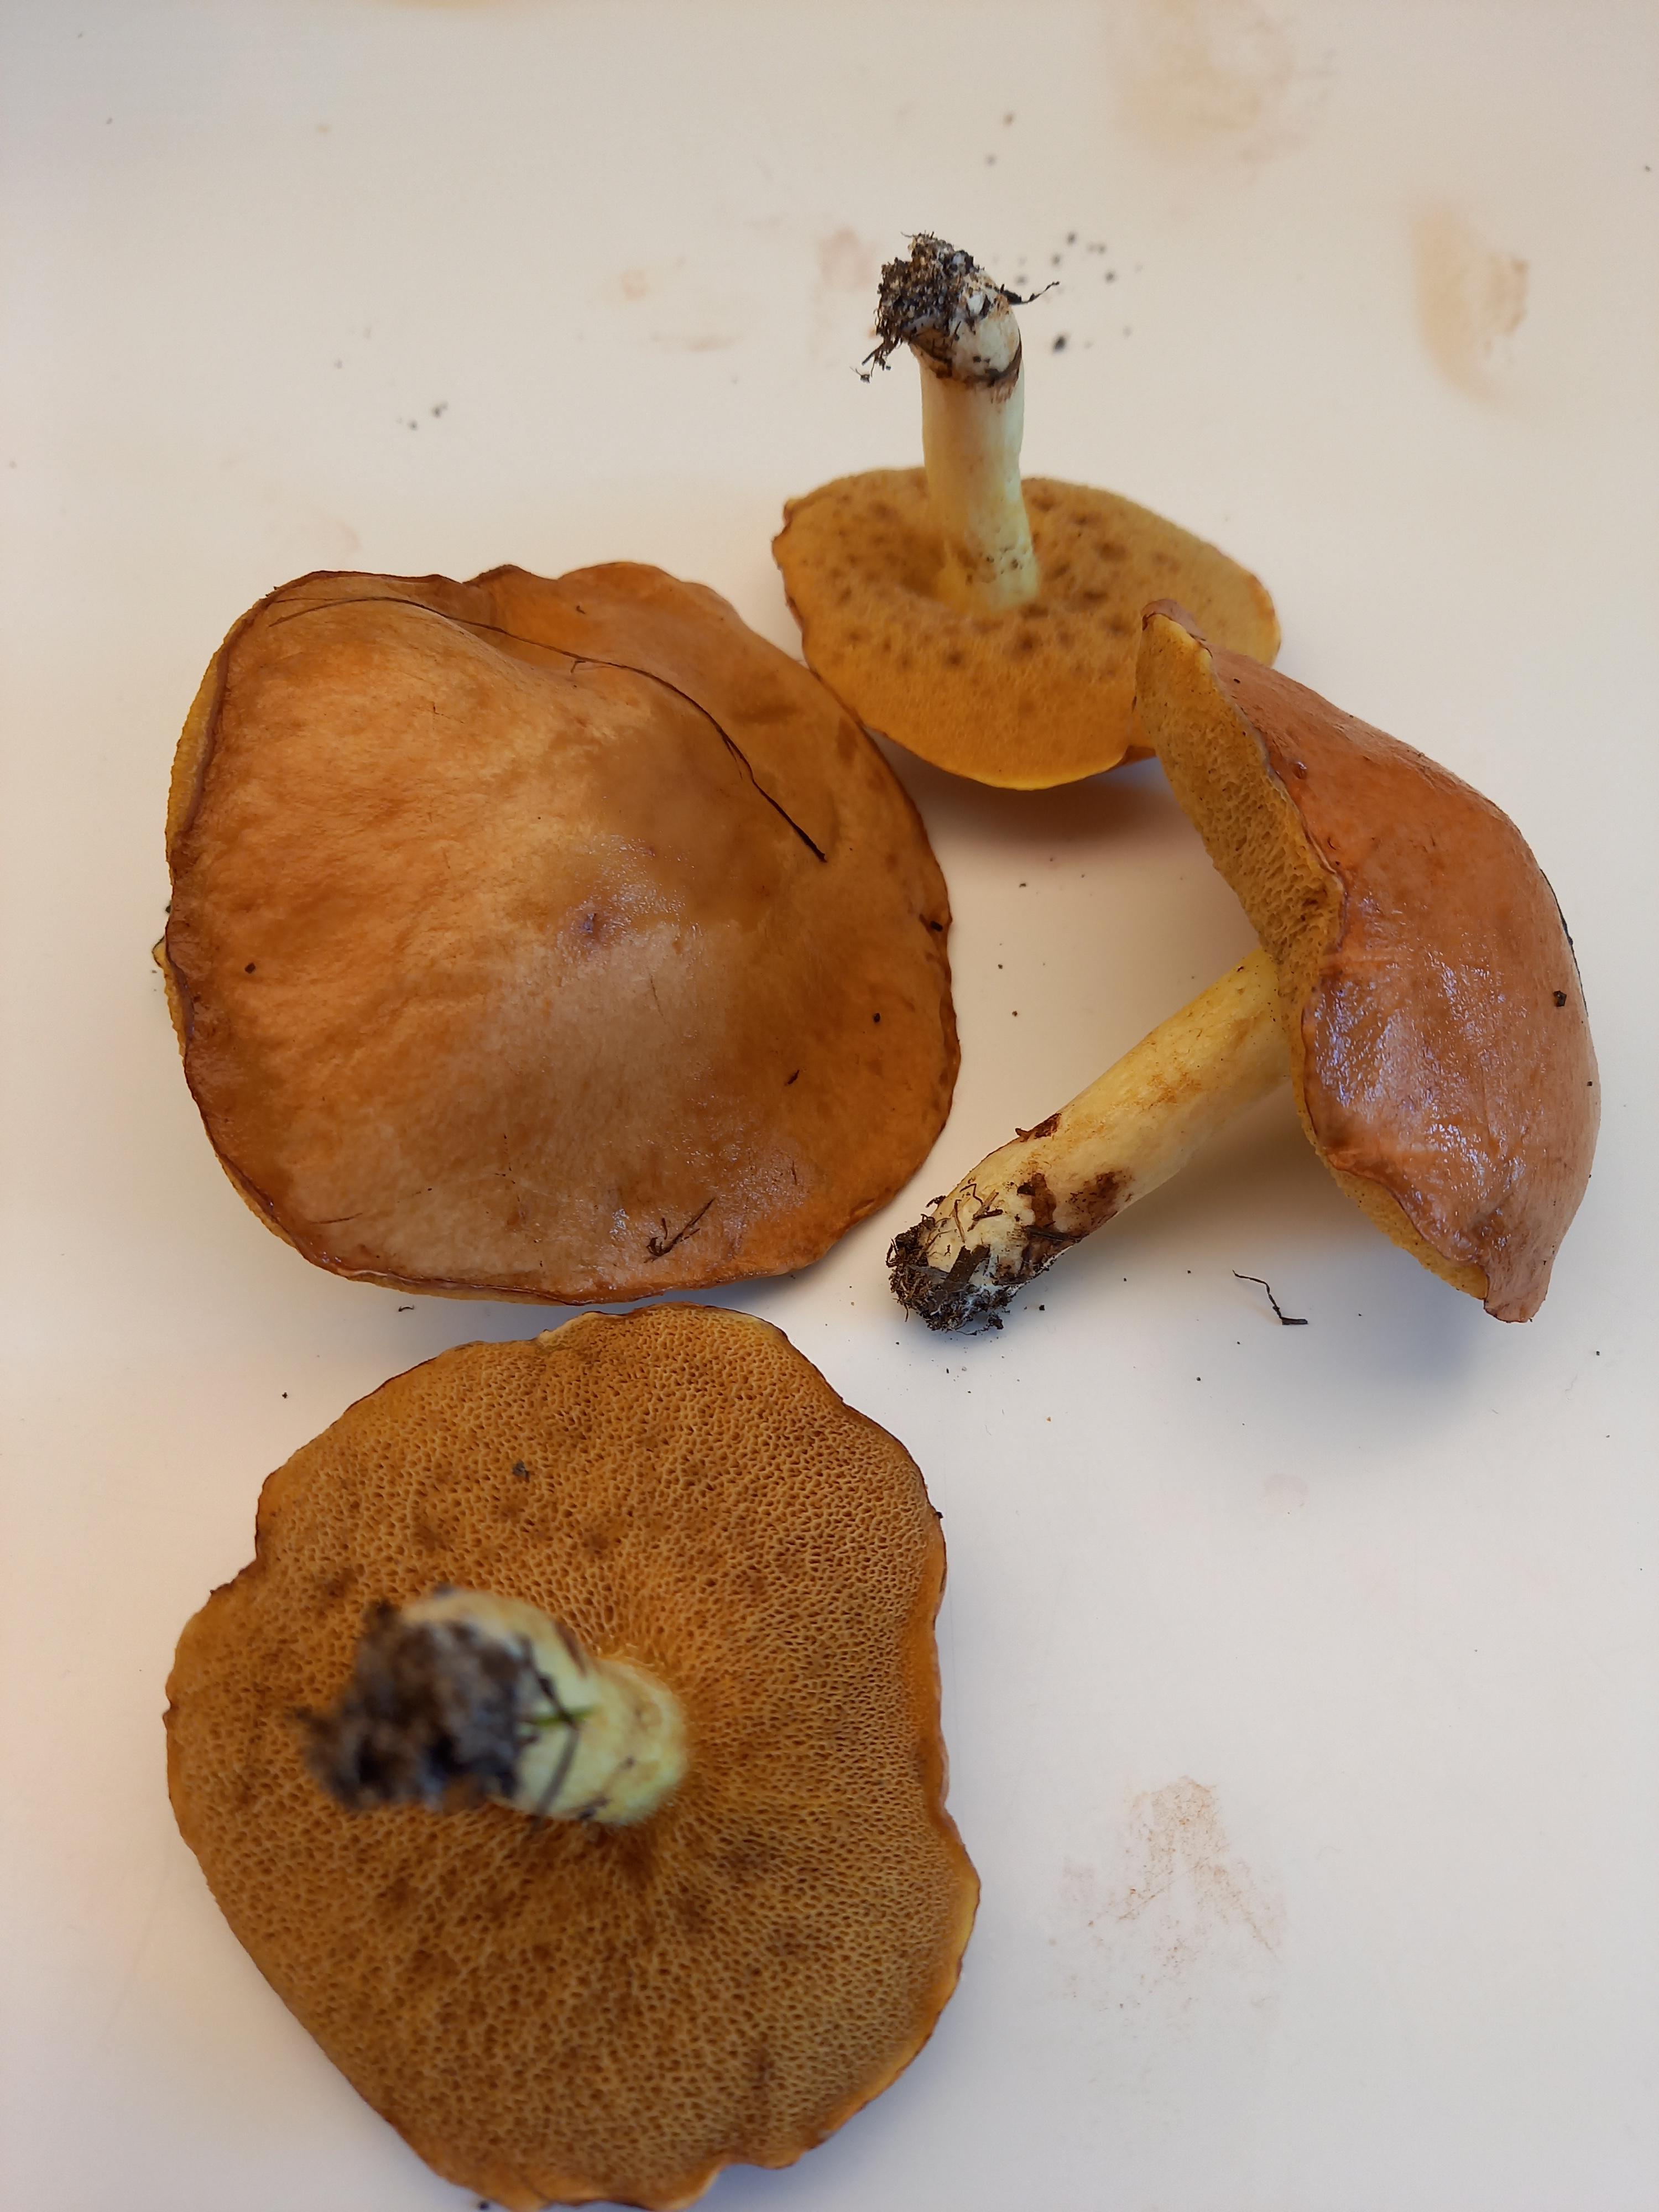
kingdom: Fungi
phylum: Basidiomycota
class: Agaricomycetes
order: Boletales
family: Suillaceae
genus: Suillus
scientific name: Suillus granulatus
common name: kornet slimrørhat
